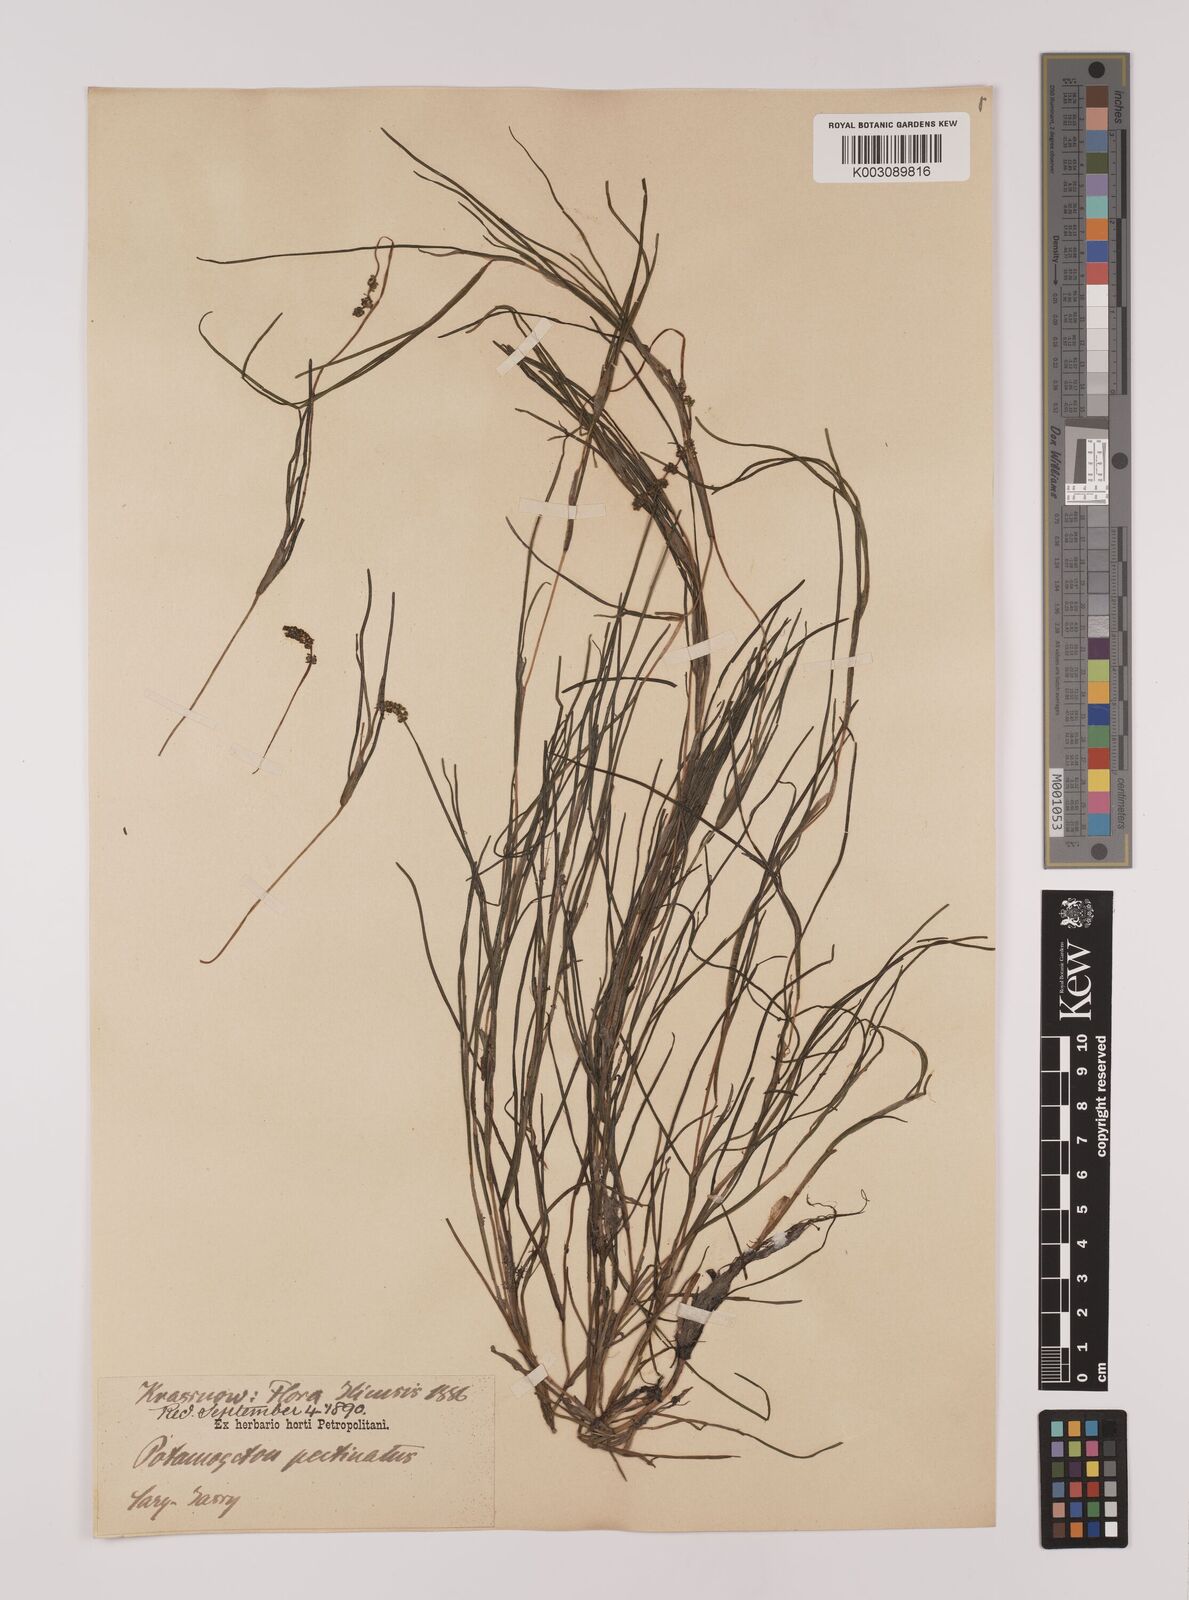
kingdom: Plantae
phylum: Tracheophyta
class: Liliopsida
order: Alismatales
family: Potamogetonaceae
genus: Stuckenia
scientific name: Stuckenia pectinata
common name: Sago pondweed
